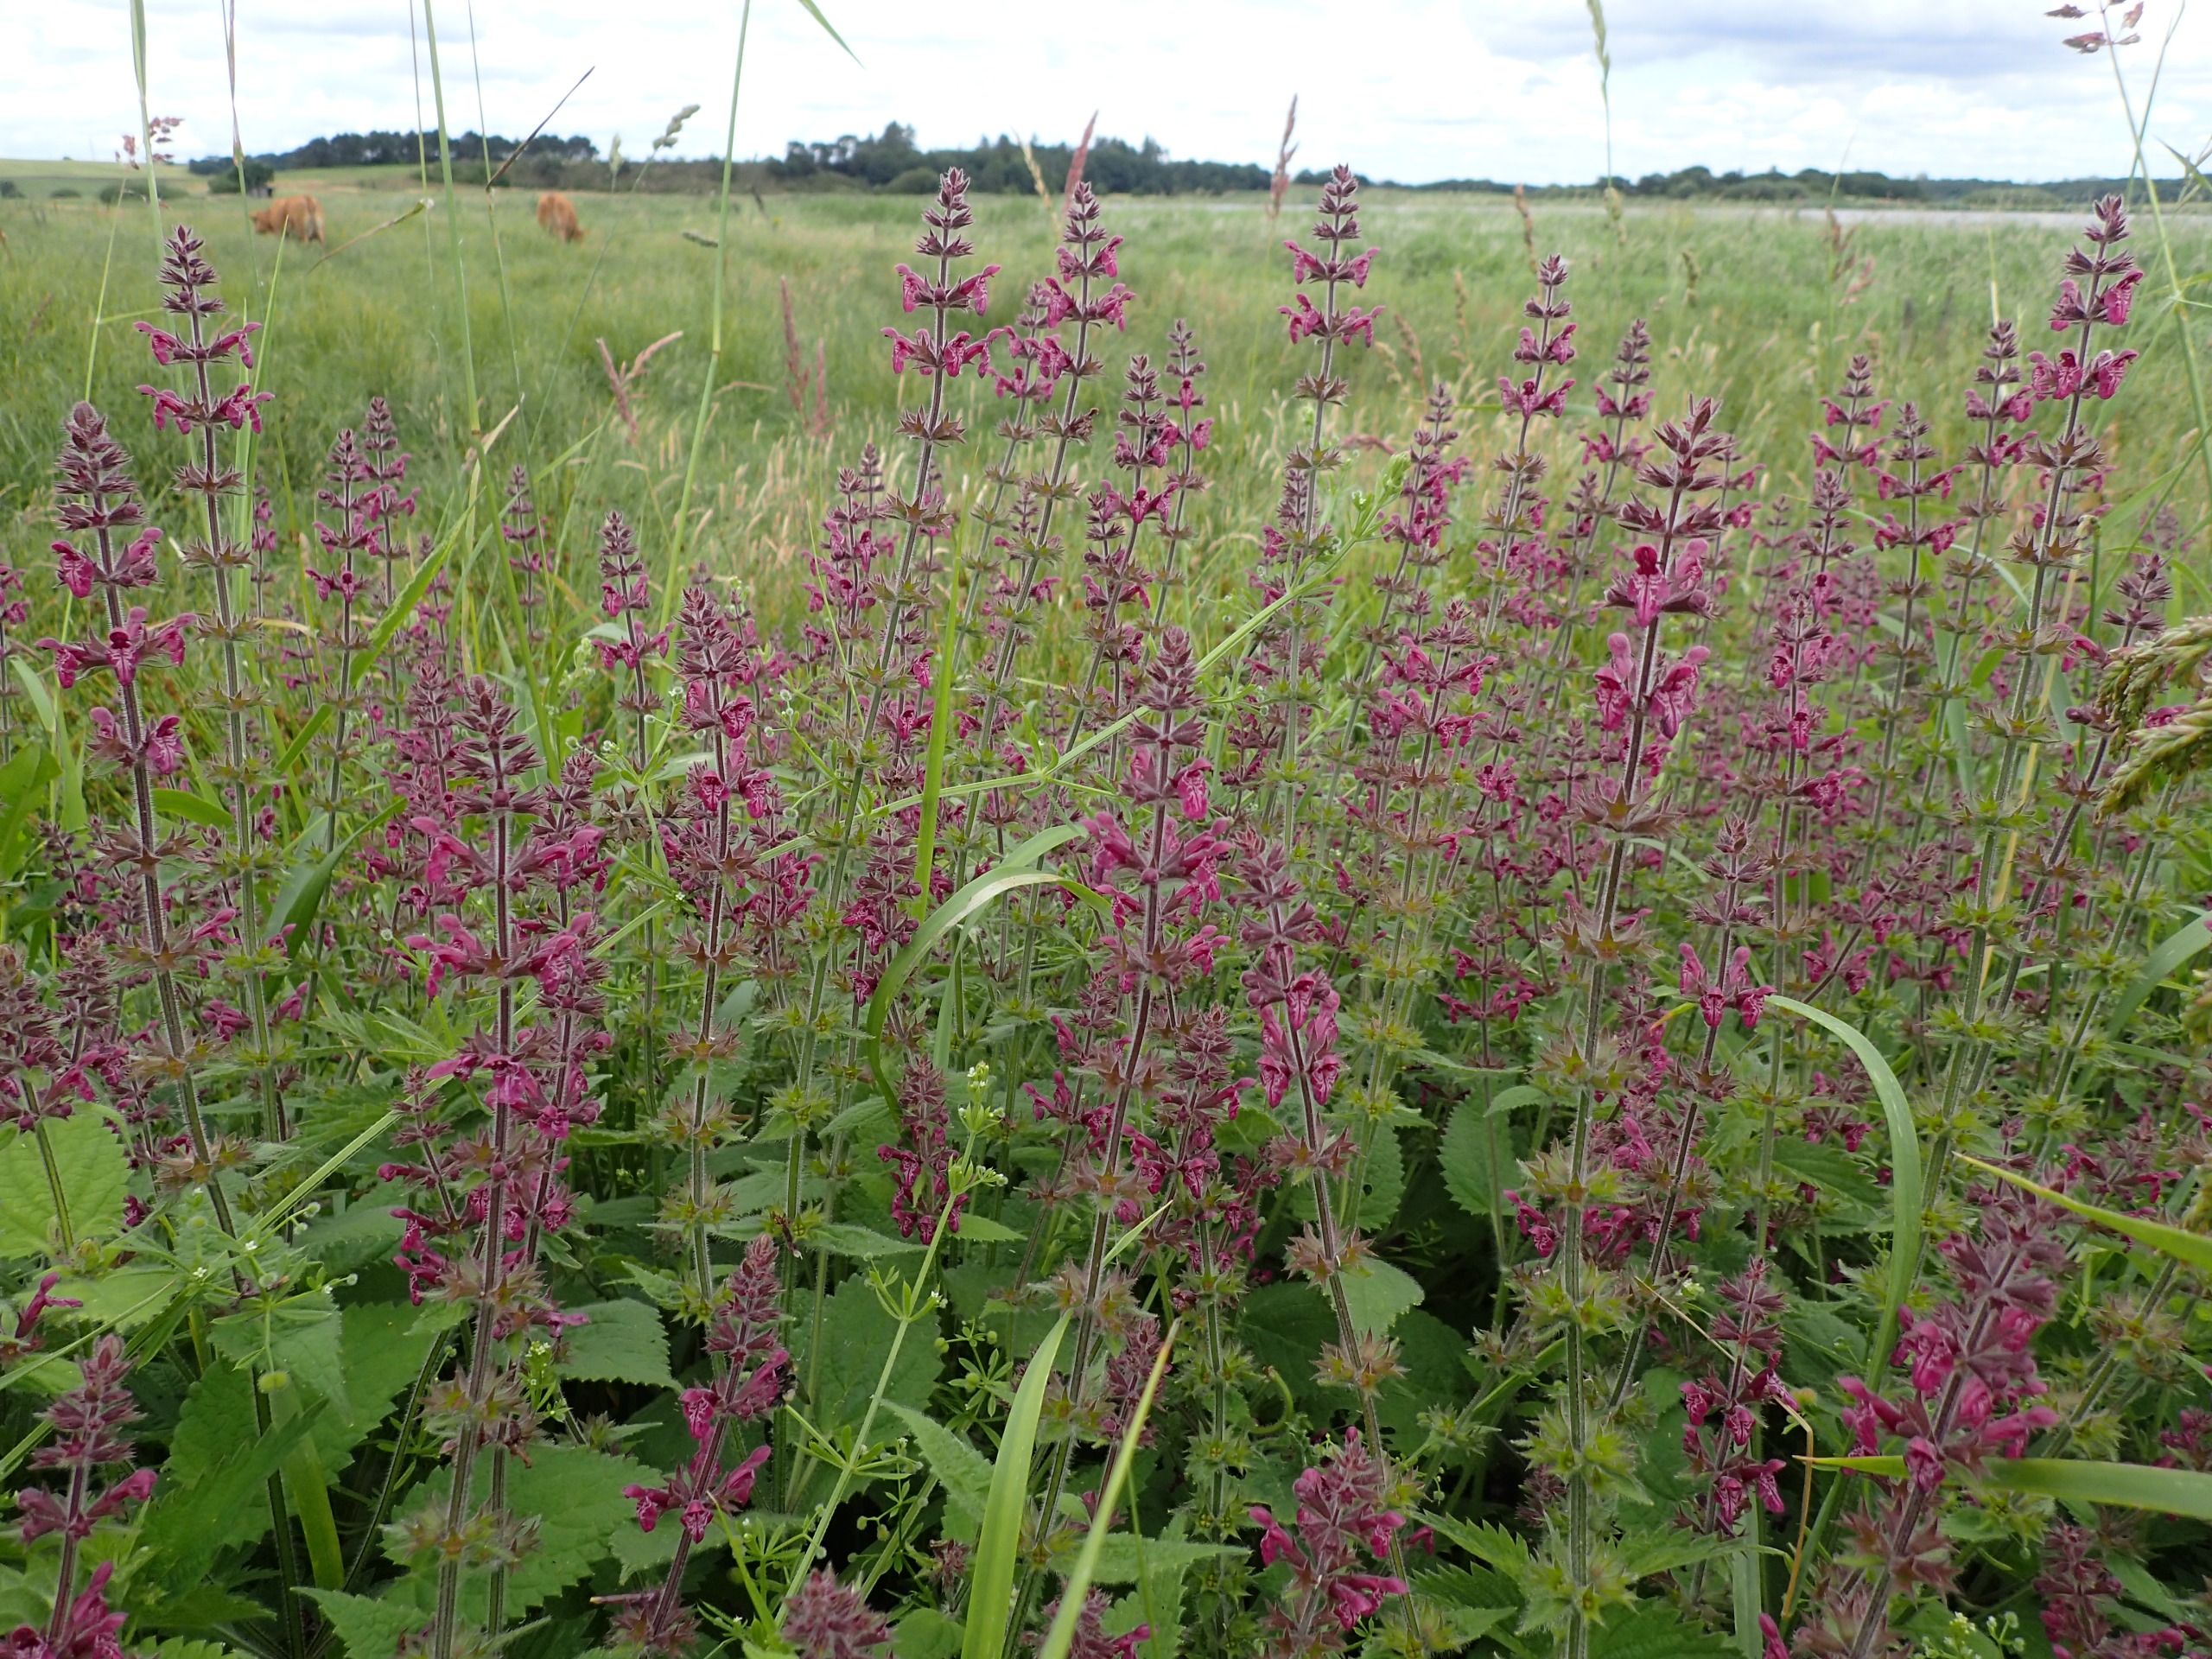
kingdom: Plantae
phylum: Tracheophyta
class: Magnoliopsida
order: Lamiales
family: Lamiaceae
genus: Stachys
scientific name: Stachys sylvatica
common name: Skov-galtetand
